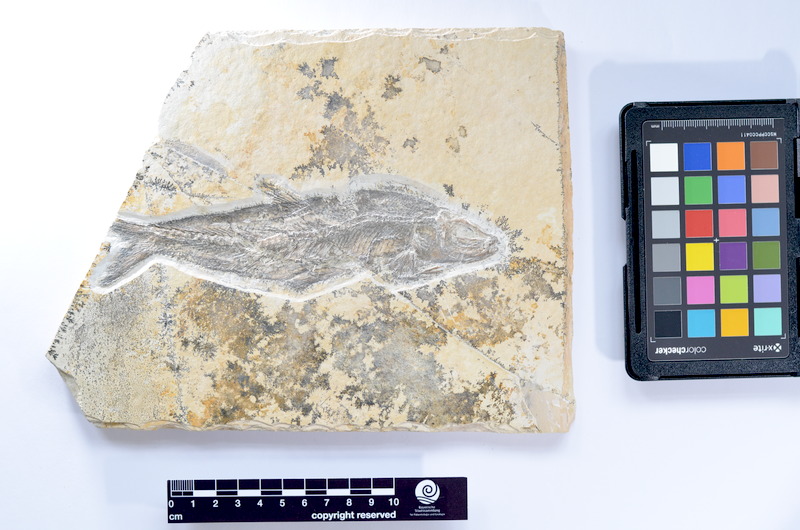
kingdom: Animalia
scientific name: Animalia
